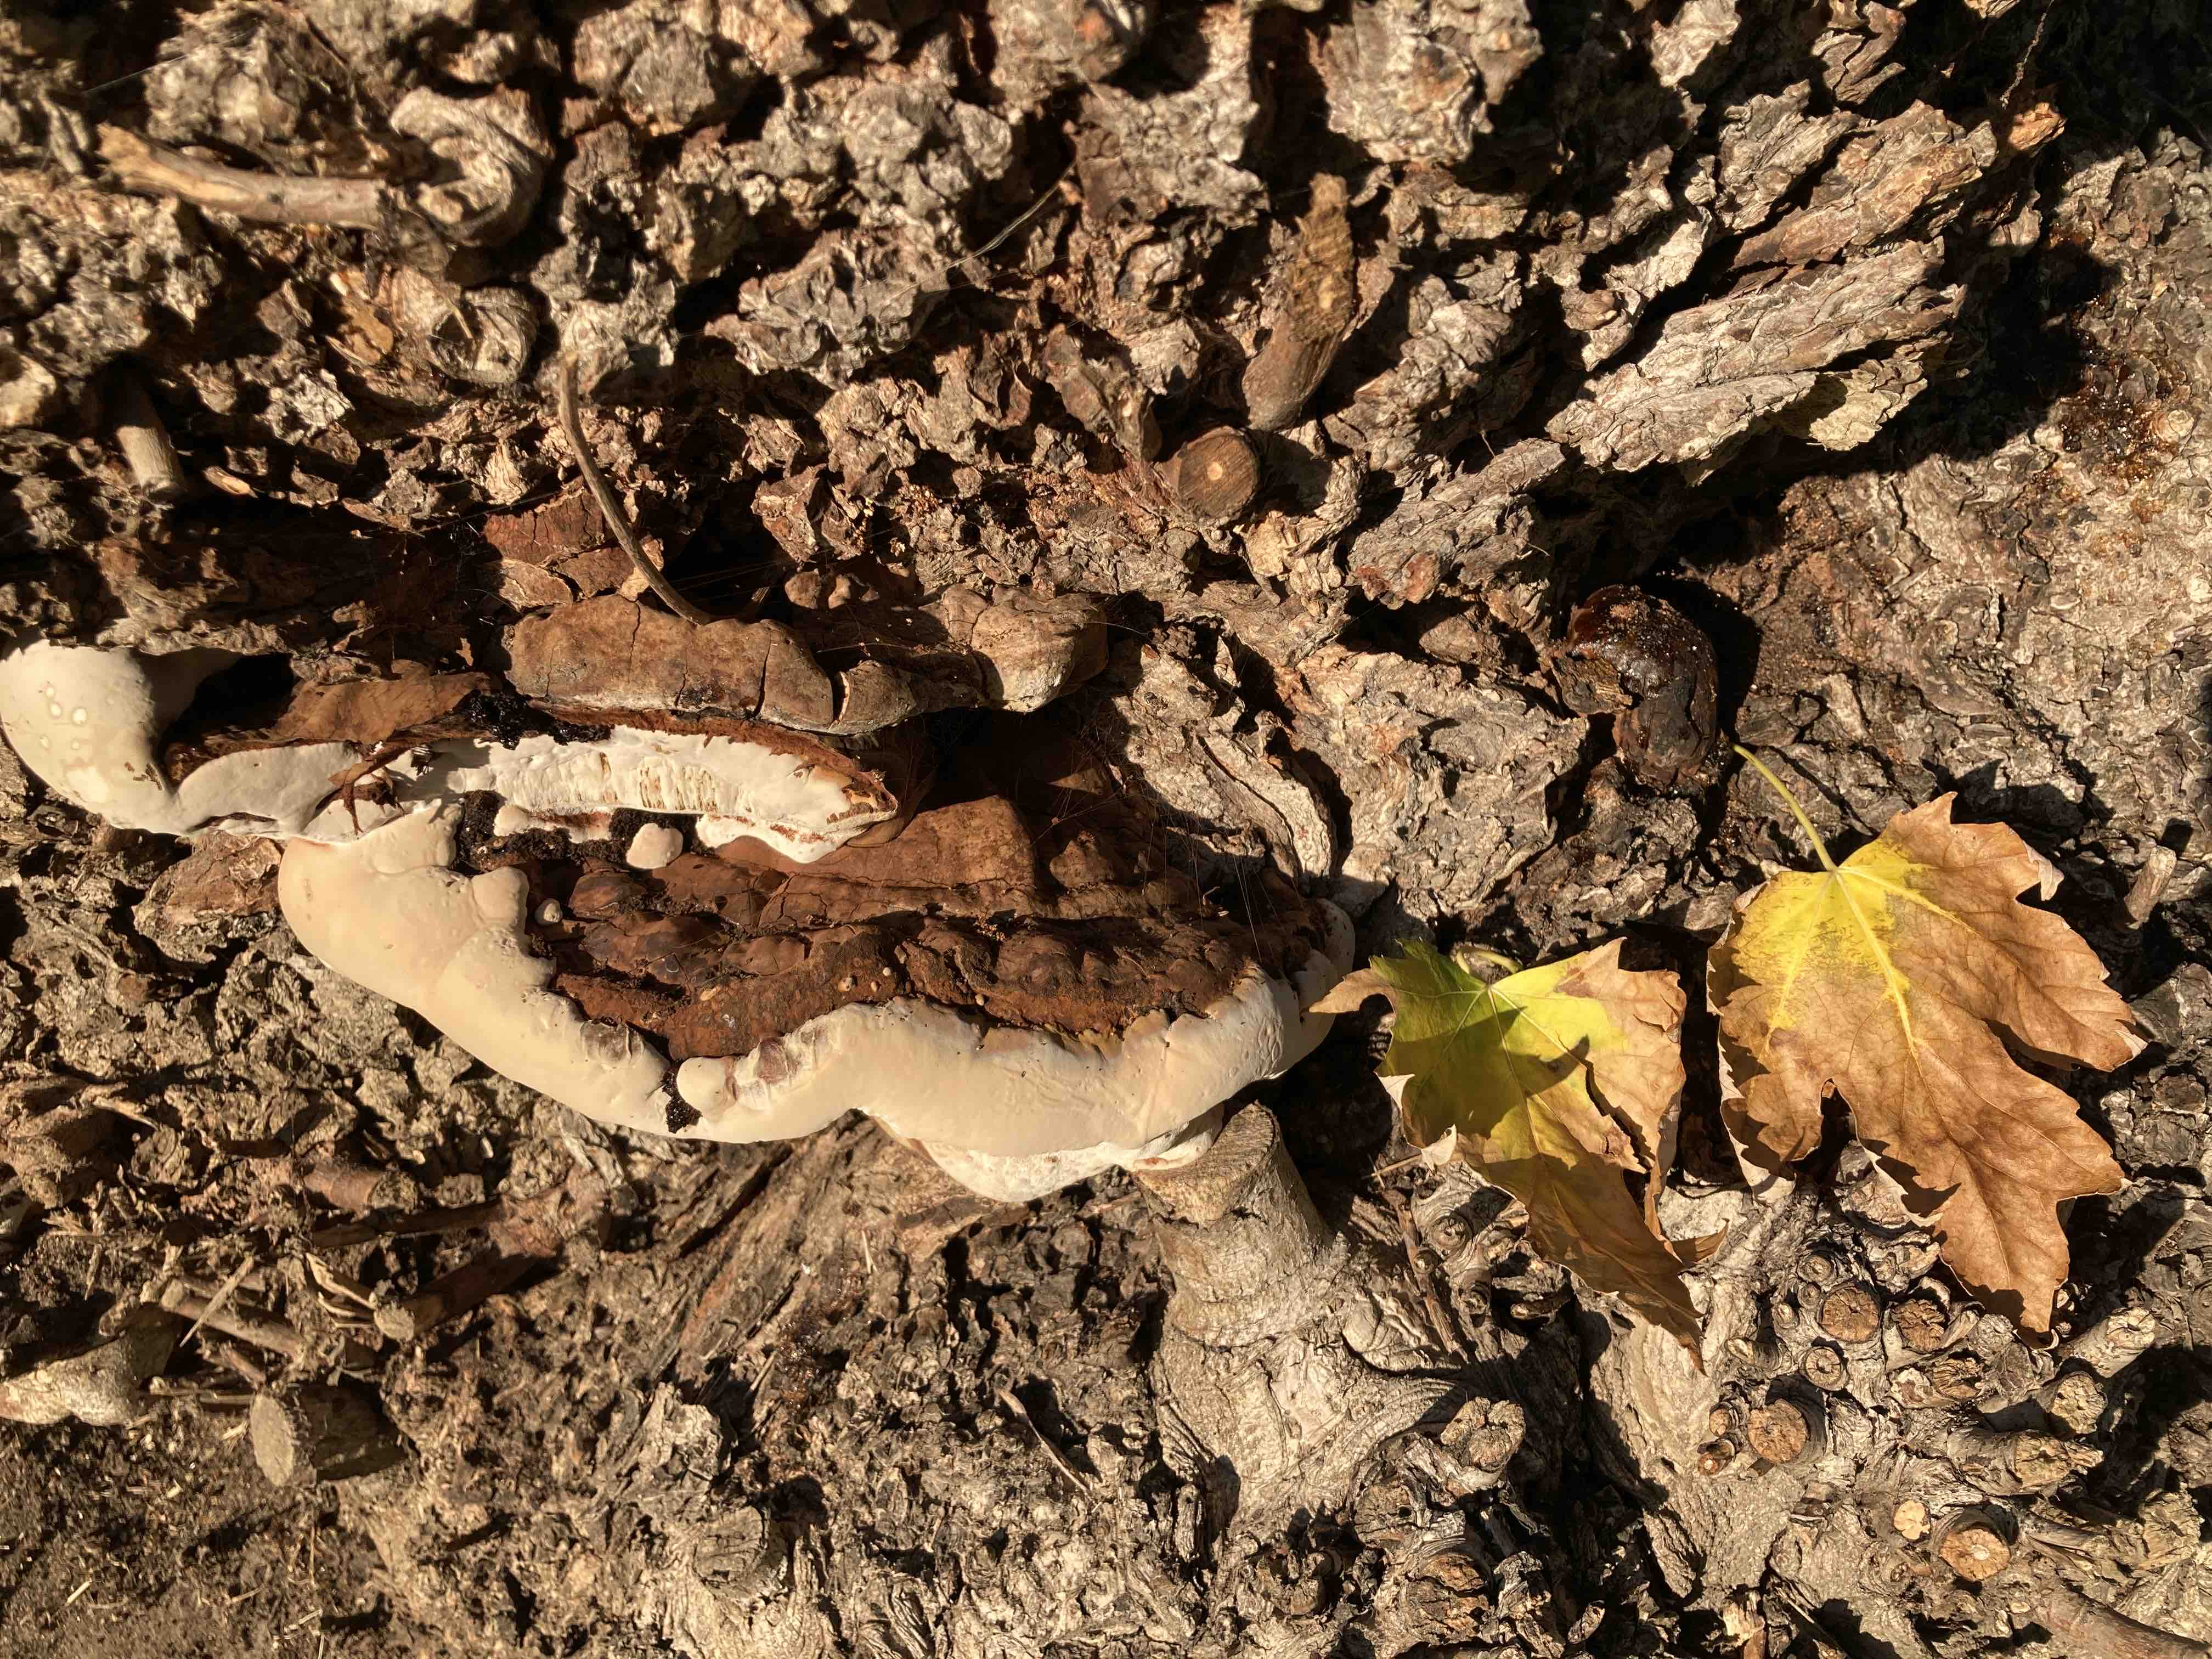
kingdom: Fungi
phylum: Basidiomycota
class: Agaricomycetes
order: Polyporales
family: Polyporaceae
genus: Ganoderma
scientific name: Ganoderma pfeifferi
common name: kobberrød lakporesvamp
